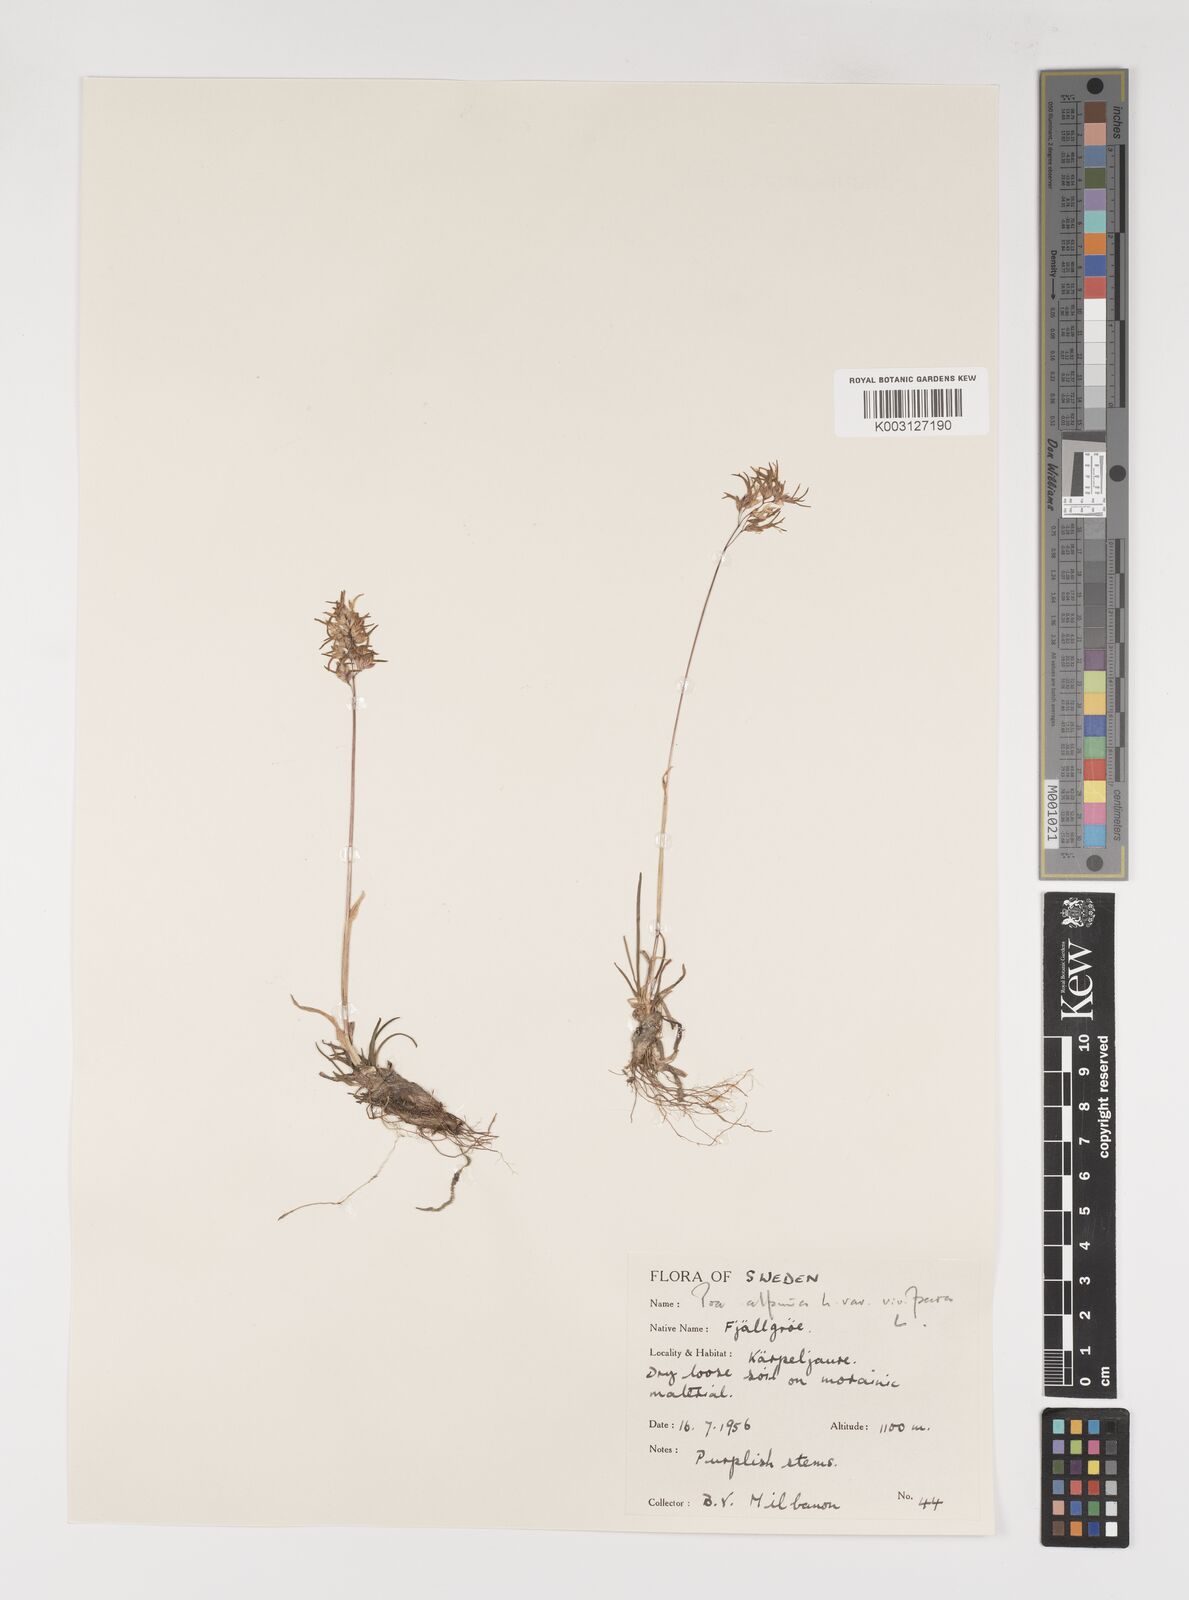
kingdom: Plantae
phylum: Tracheophyta
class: Liliopsida
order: Poales
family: Poaceae
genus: Poa
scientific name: Poa alpina
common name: Alpine bluegrass
